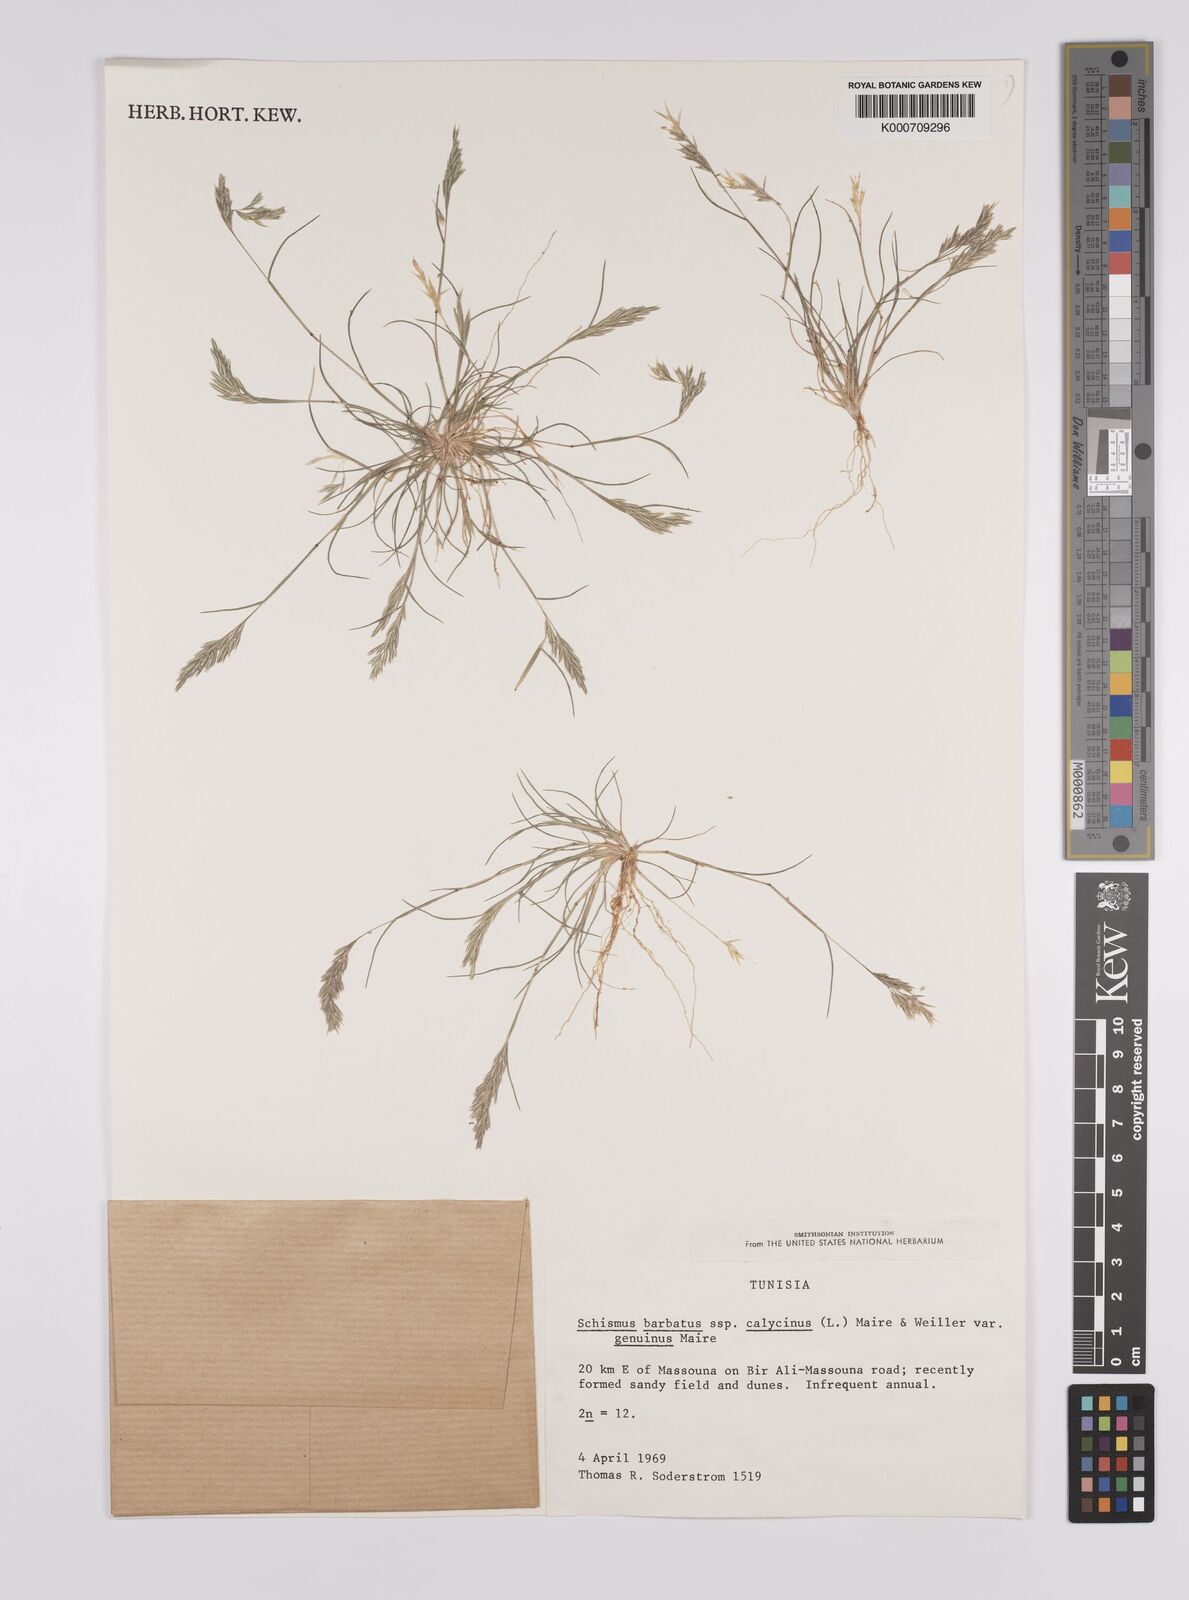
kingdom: Plantae
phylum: Tracheophyta
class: Liliopsida
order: Poales
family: Poaceae
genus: Schismus
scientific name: Schismus barbatus
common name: Kelch-grass
